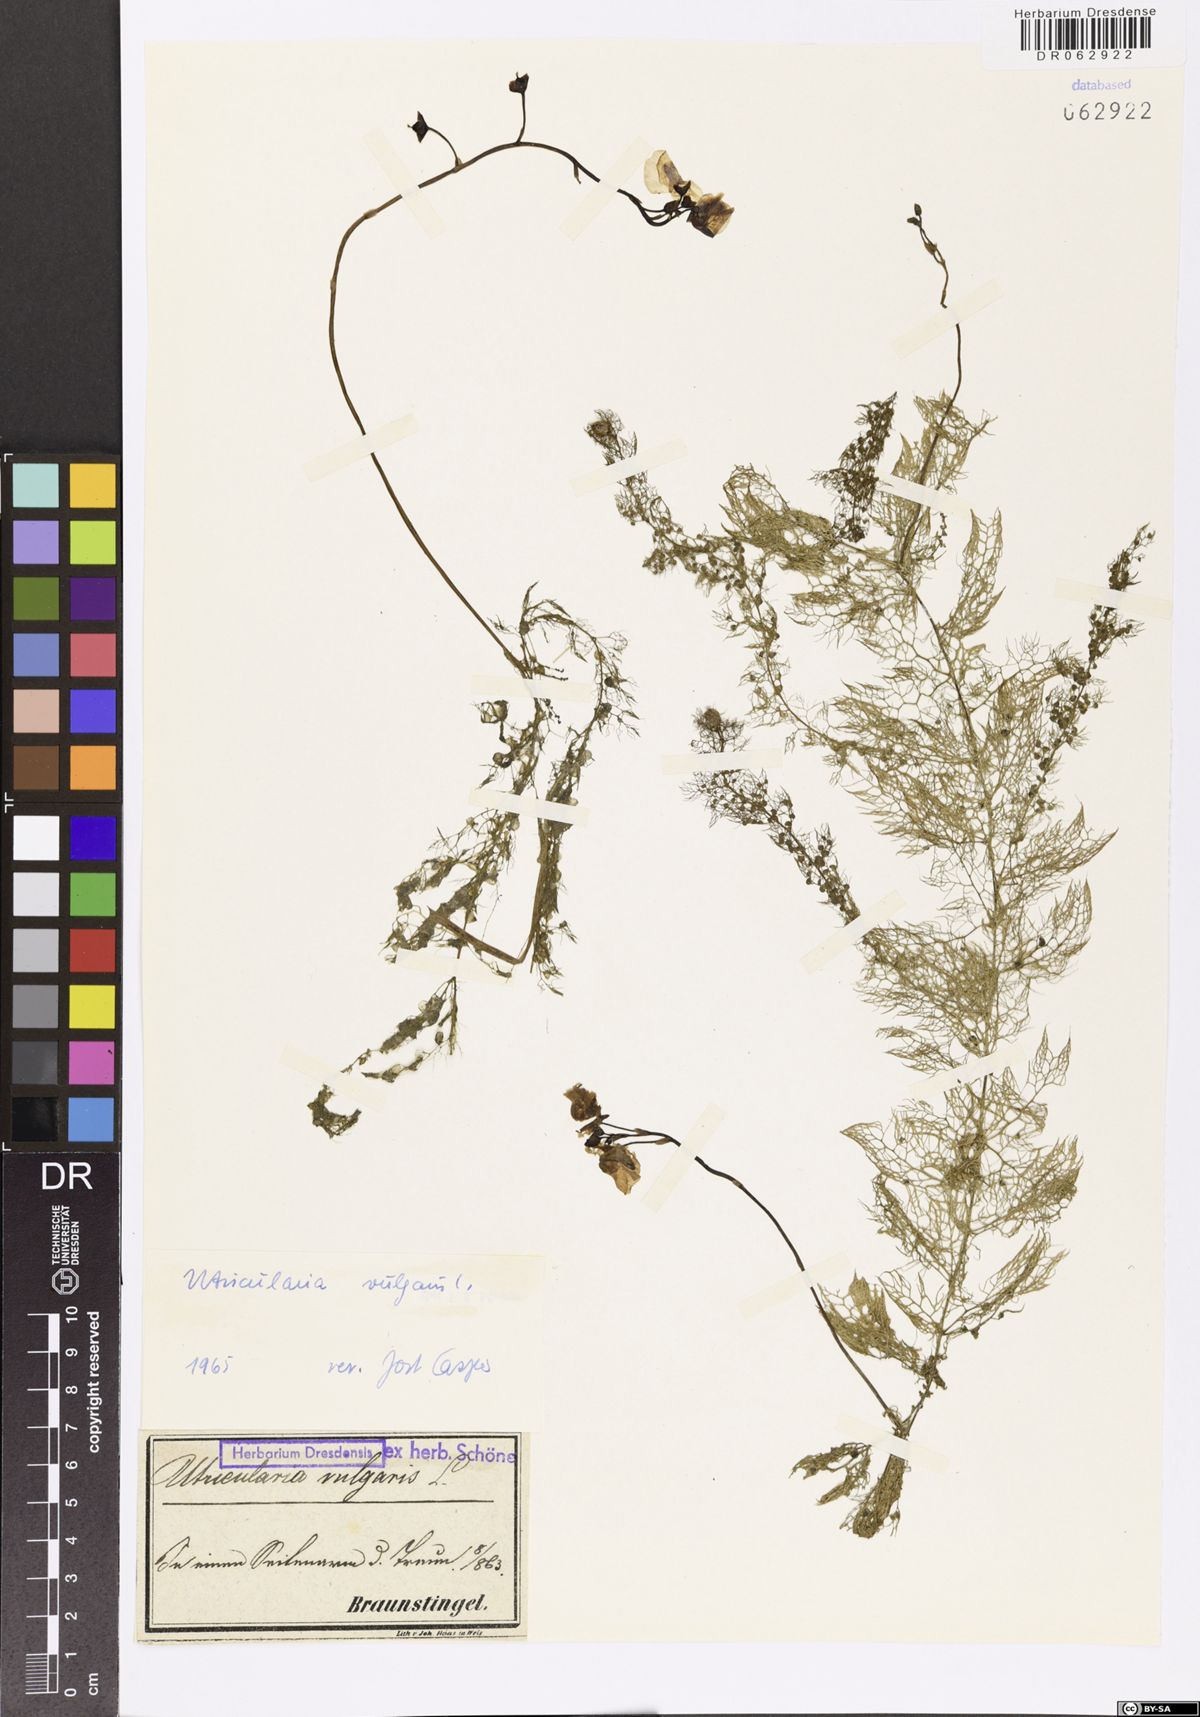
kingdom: Plantae
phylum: Tracheophyta
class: Magnoliopsida
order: Lamiales
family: Lentibulariaceae
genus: Utricularia
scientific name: Utricularia vulgaris
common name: Greater bladderwort
